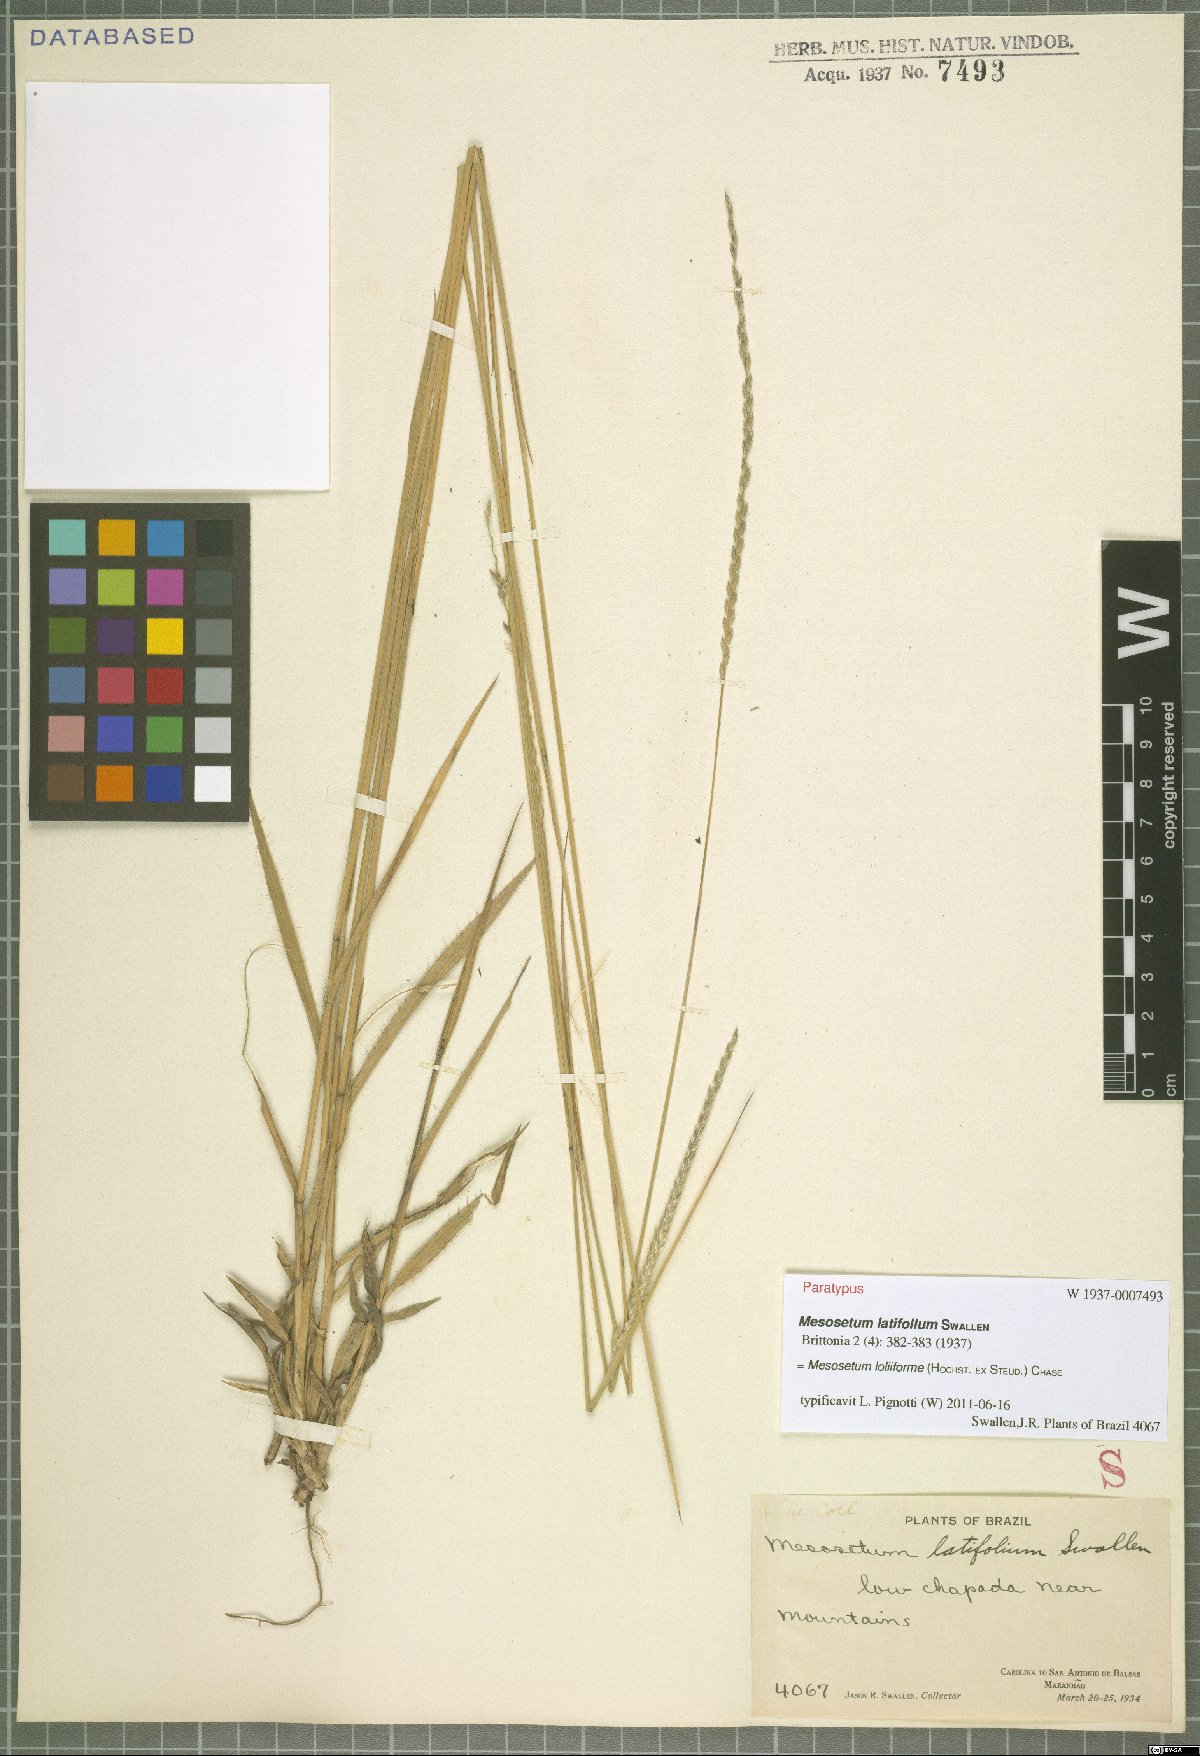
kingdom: Plantae
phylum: Tracheophyta
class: Liliopsida
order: Poales
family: Poaceae
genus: Mesosetum
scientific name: Mesosetum loliiforme
